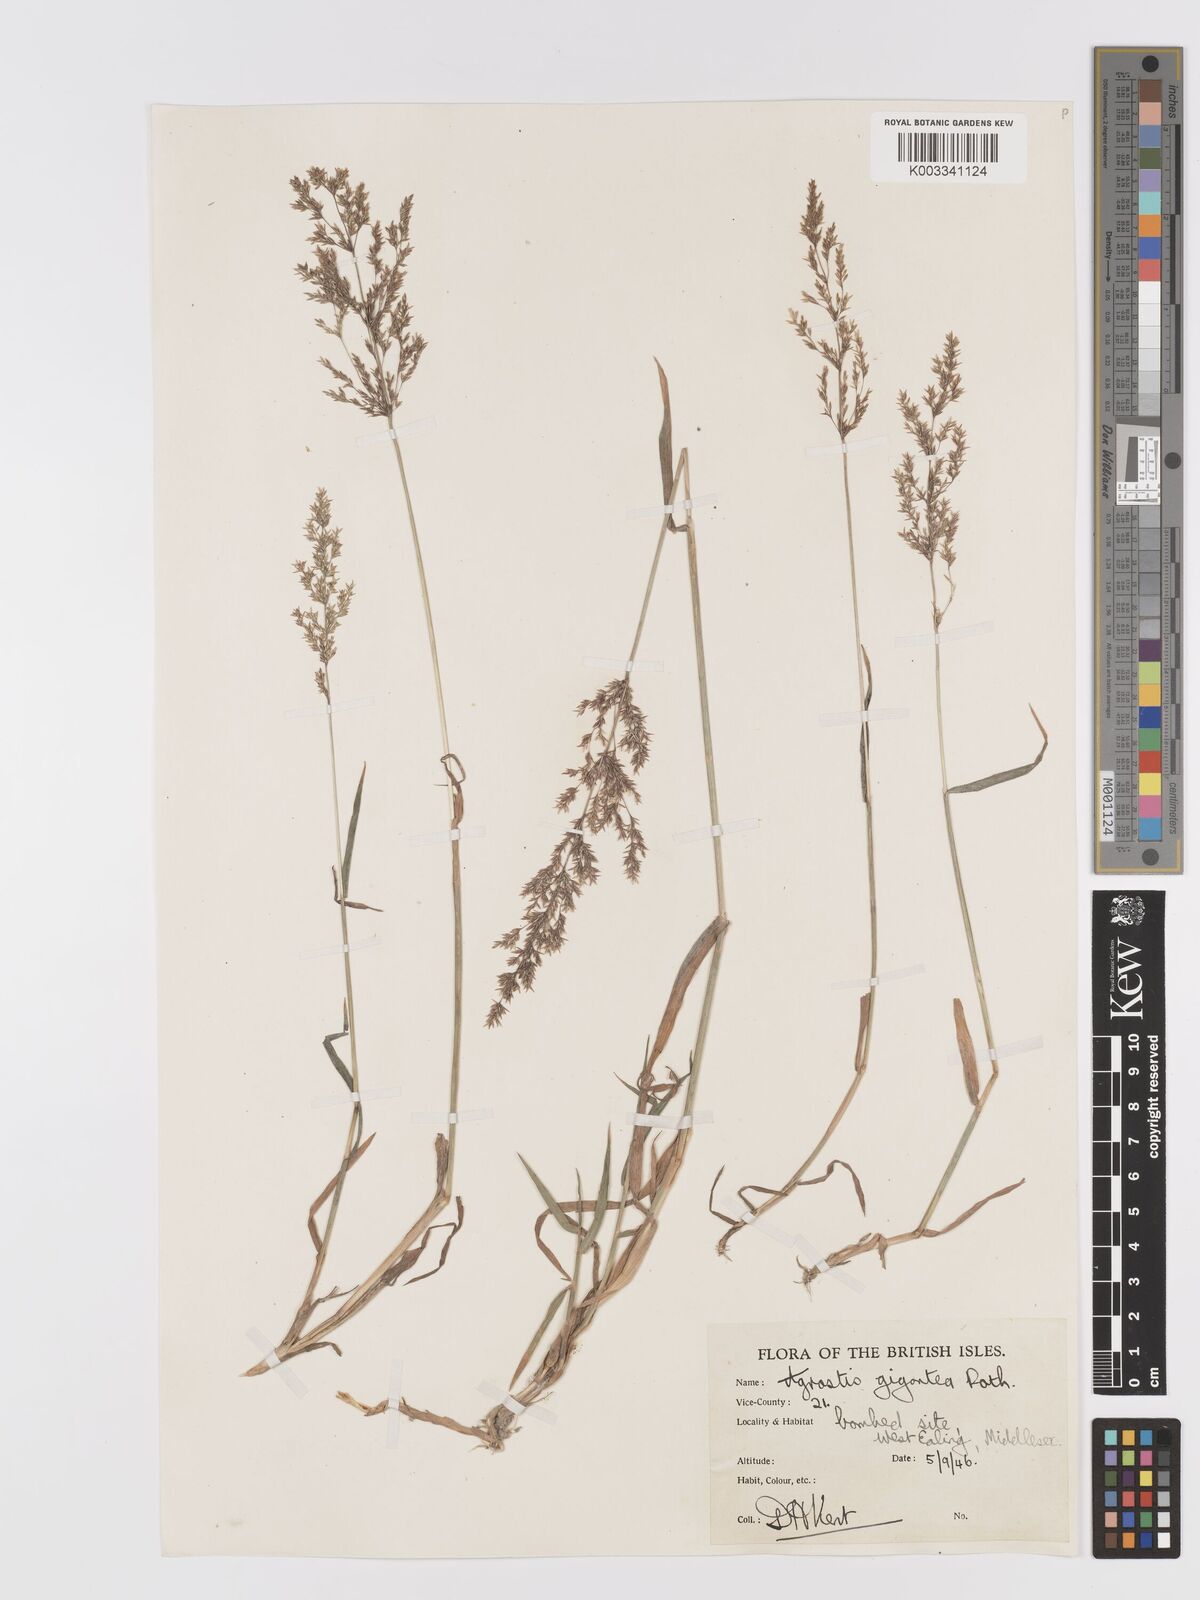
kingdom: Plantae
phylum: Tracheophyta
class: Liliopsida
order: Poales
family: Poaceae
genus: Agrostis
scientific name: Agrostis gigantea
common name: Black bent
